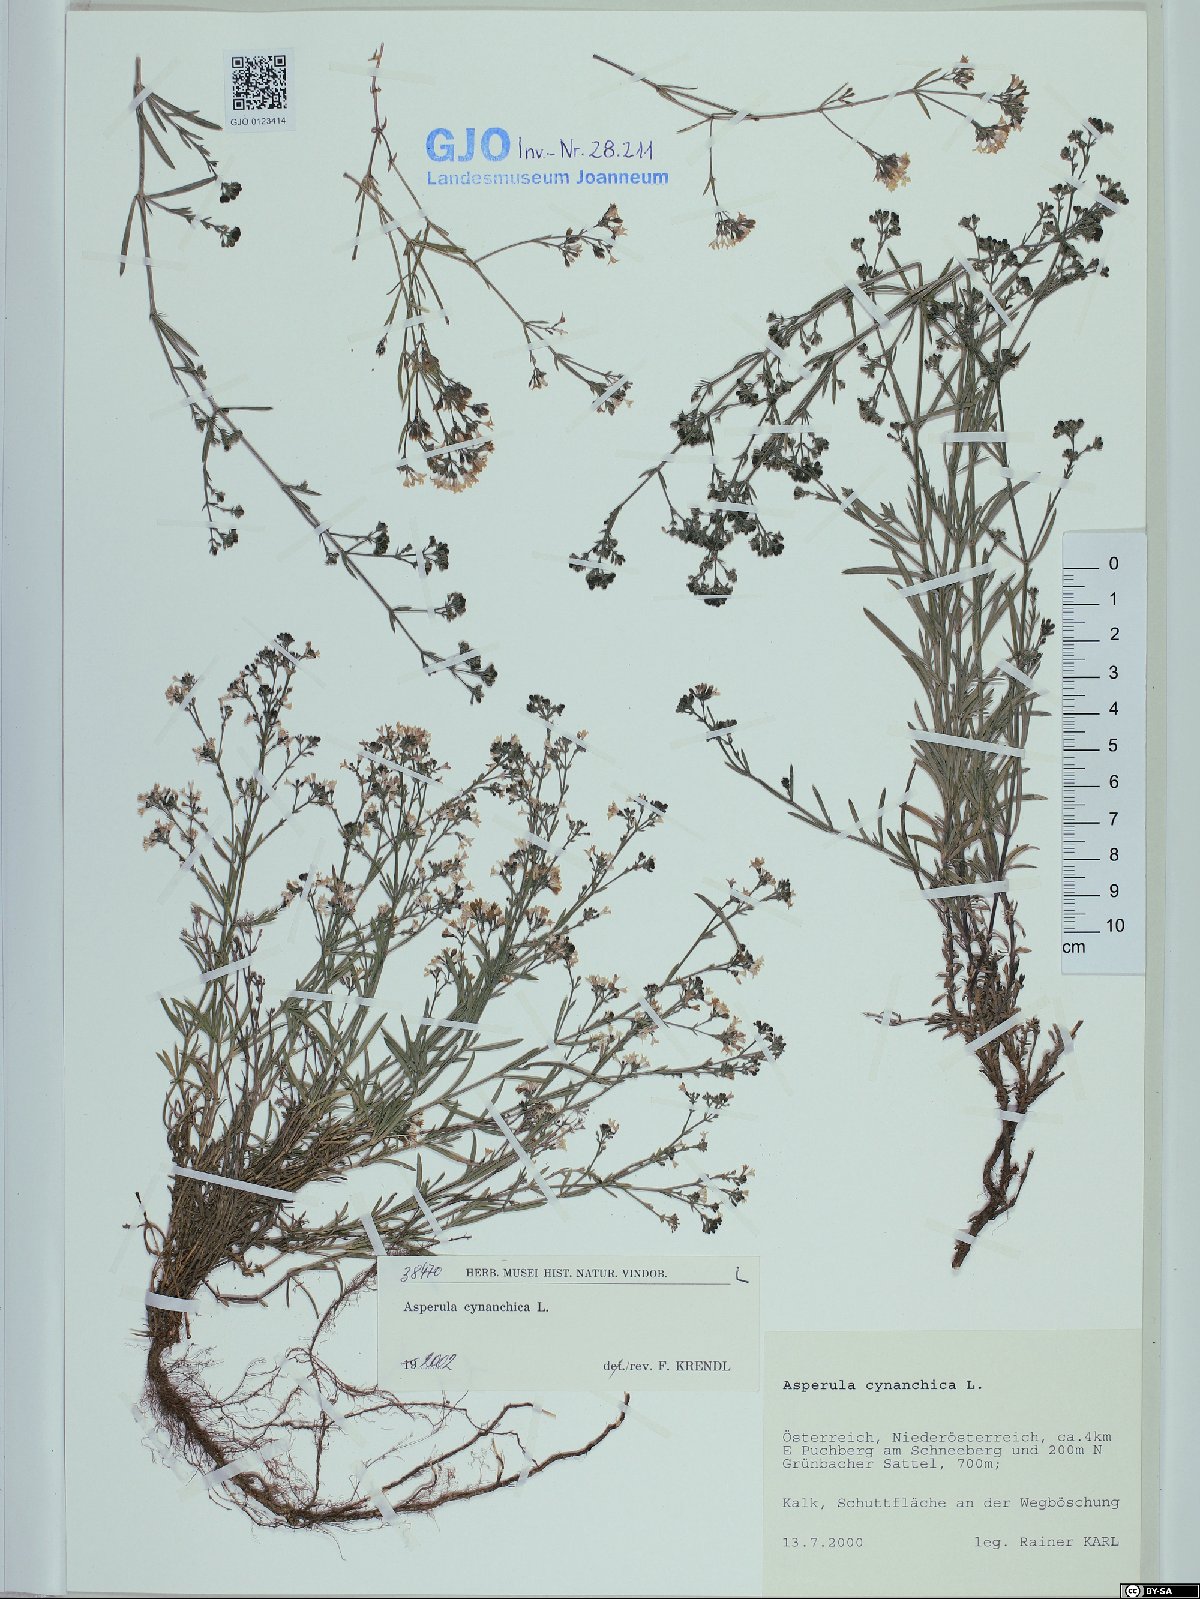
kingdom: Plantae
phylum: Tracheophyta
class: Magnoliopsida
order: Gentianales
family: Rubiaceae
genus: Cynanchica
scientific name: Cynanchica pyrenaica
